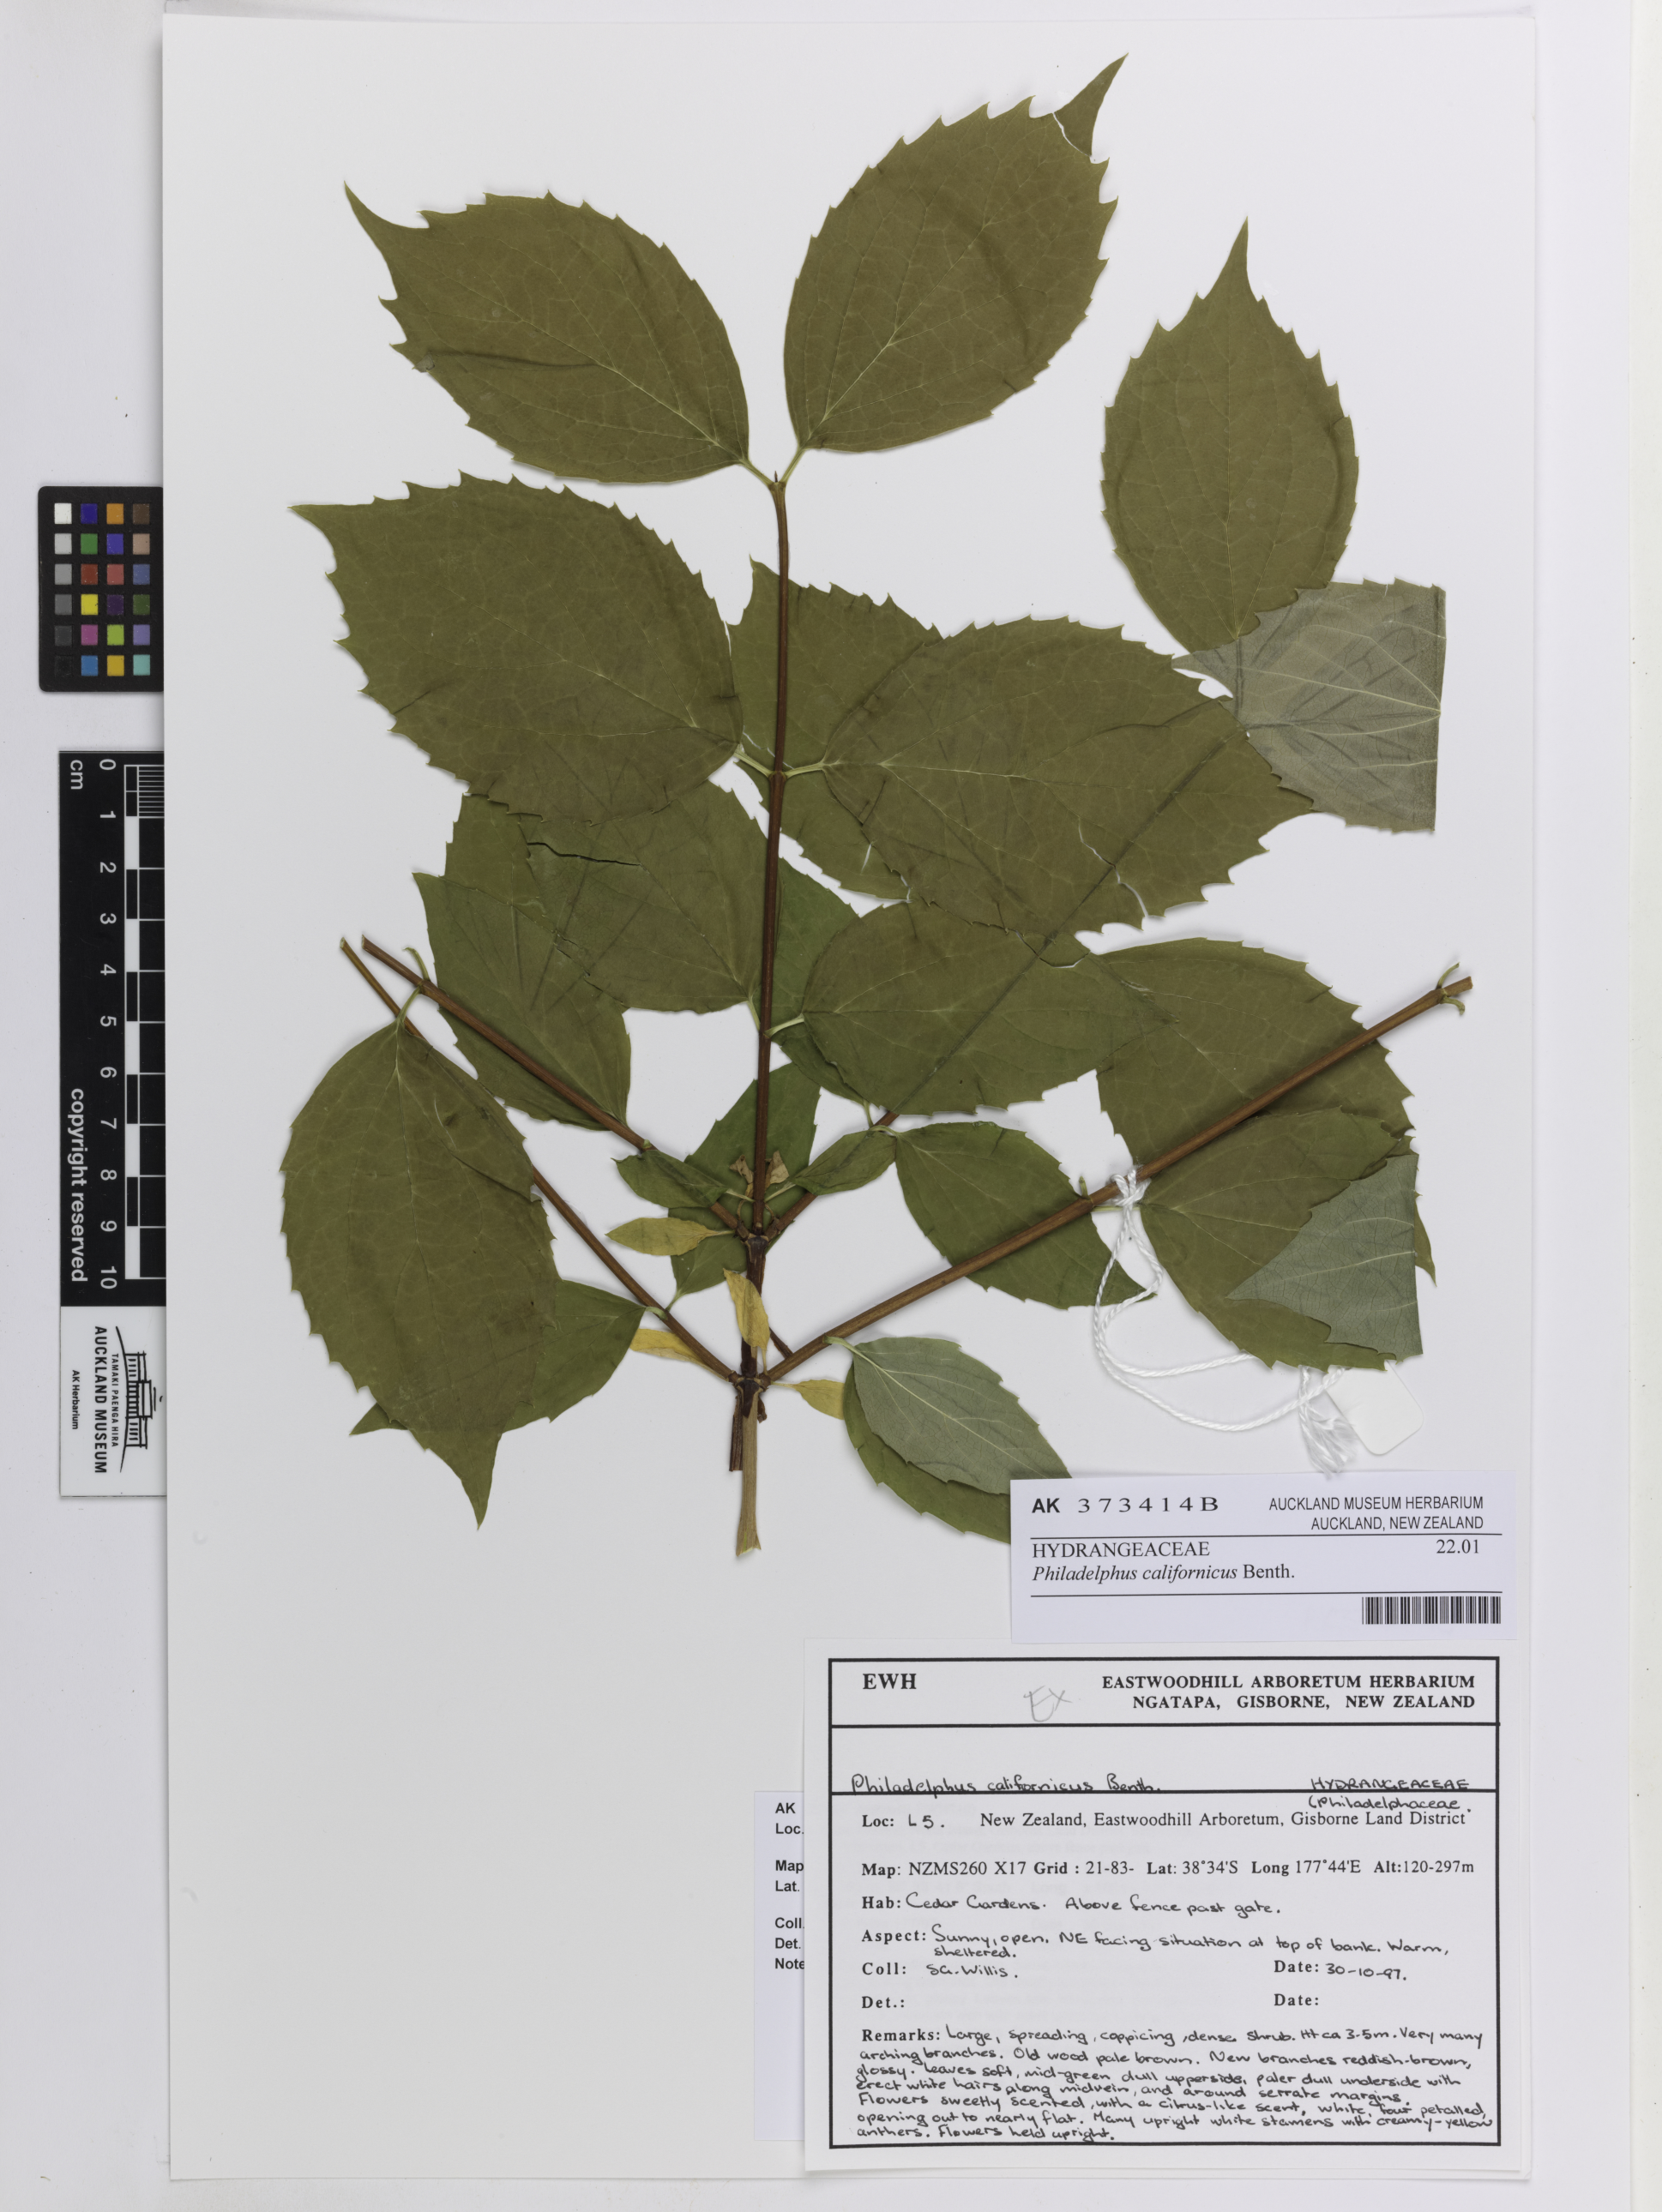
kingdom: Plantae
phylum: Tracheophyta
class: Magnoliopsida
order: Cornales
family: Hydrangeaceae
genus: Philadelphus
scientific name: Philadelphus lewisii
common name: Lewis's mock orange
